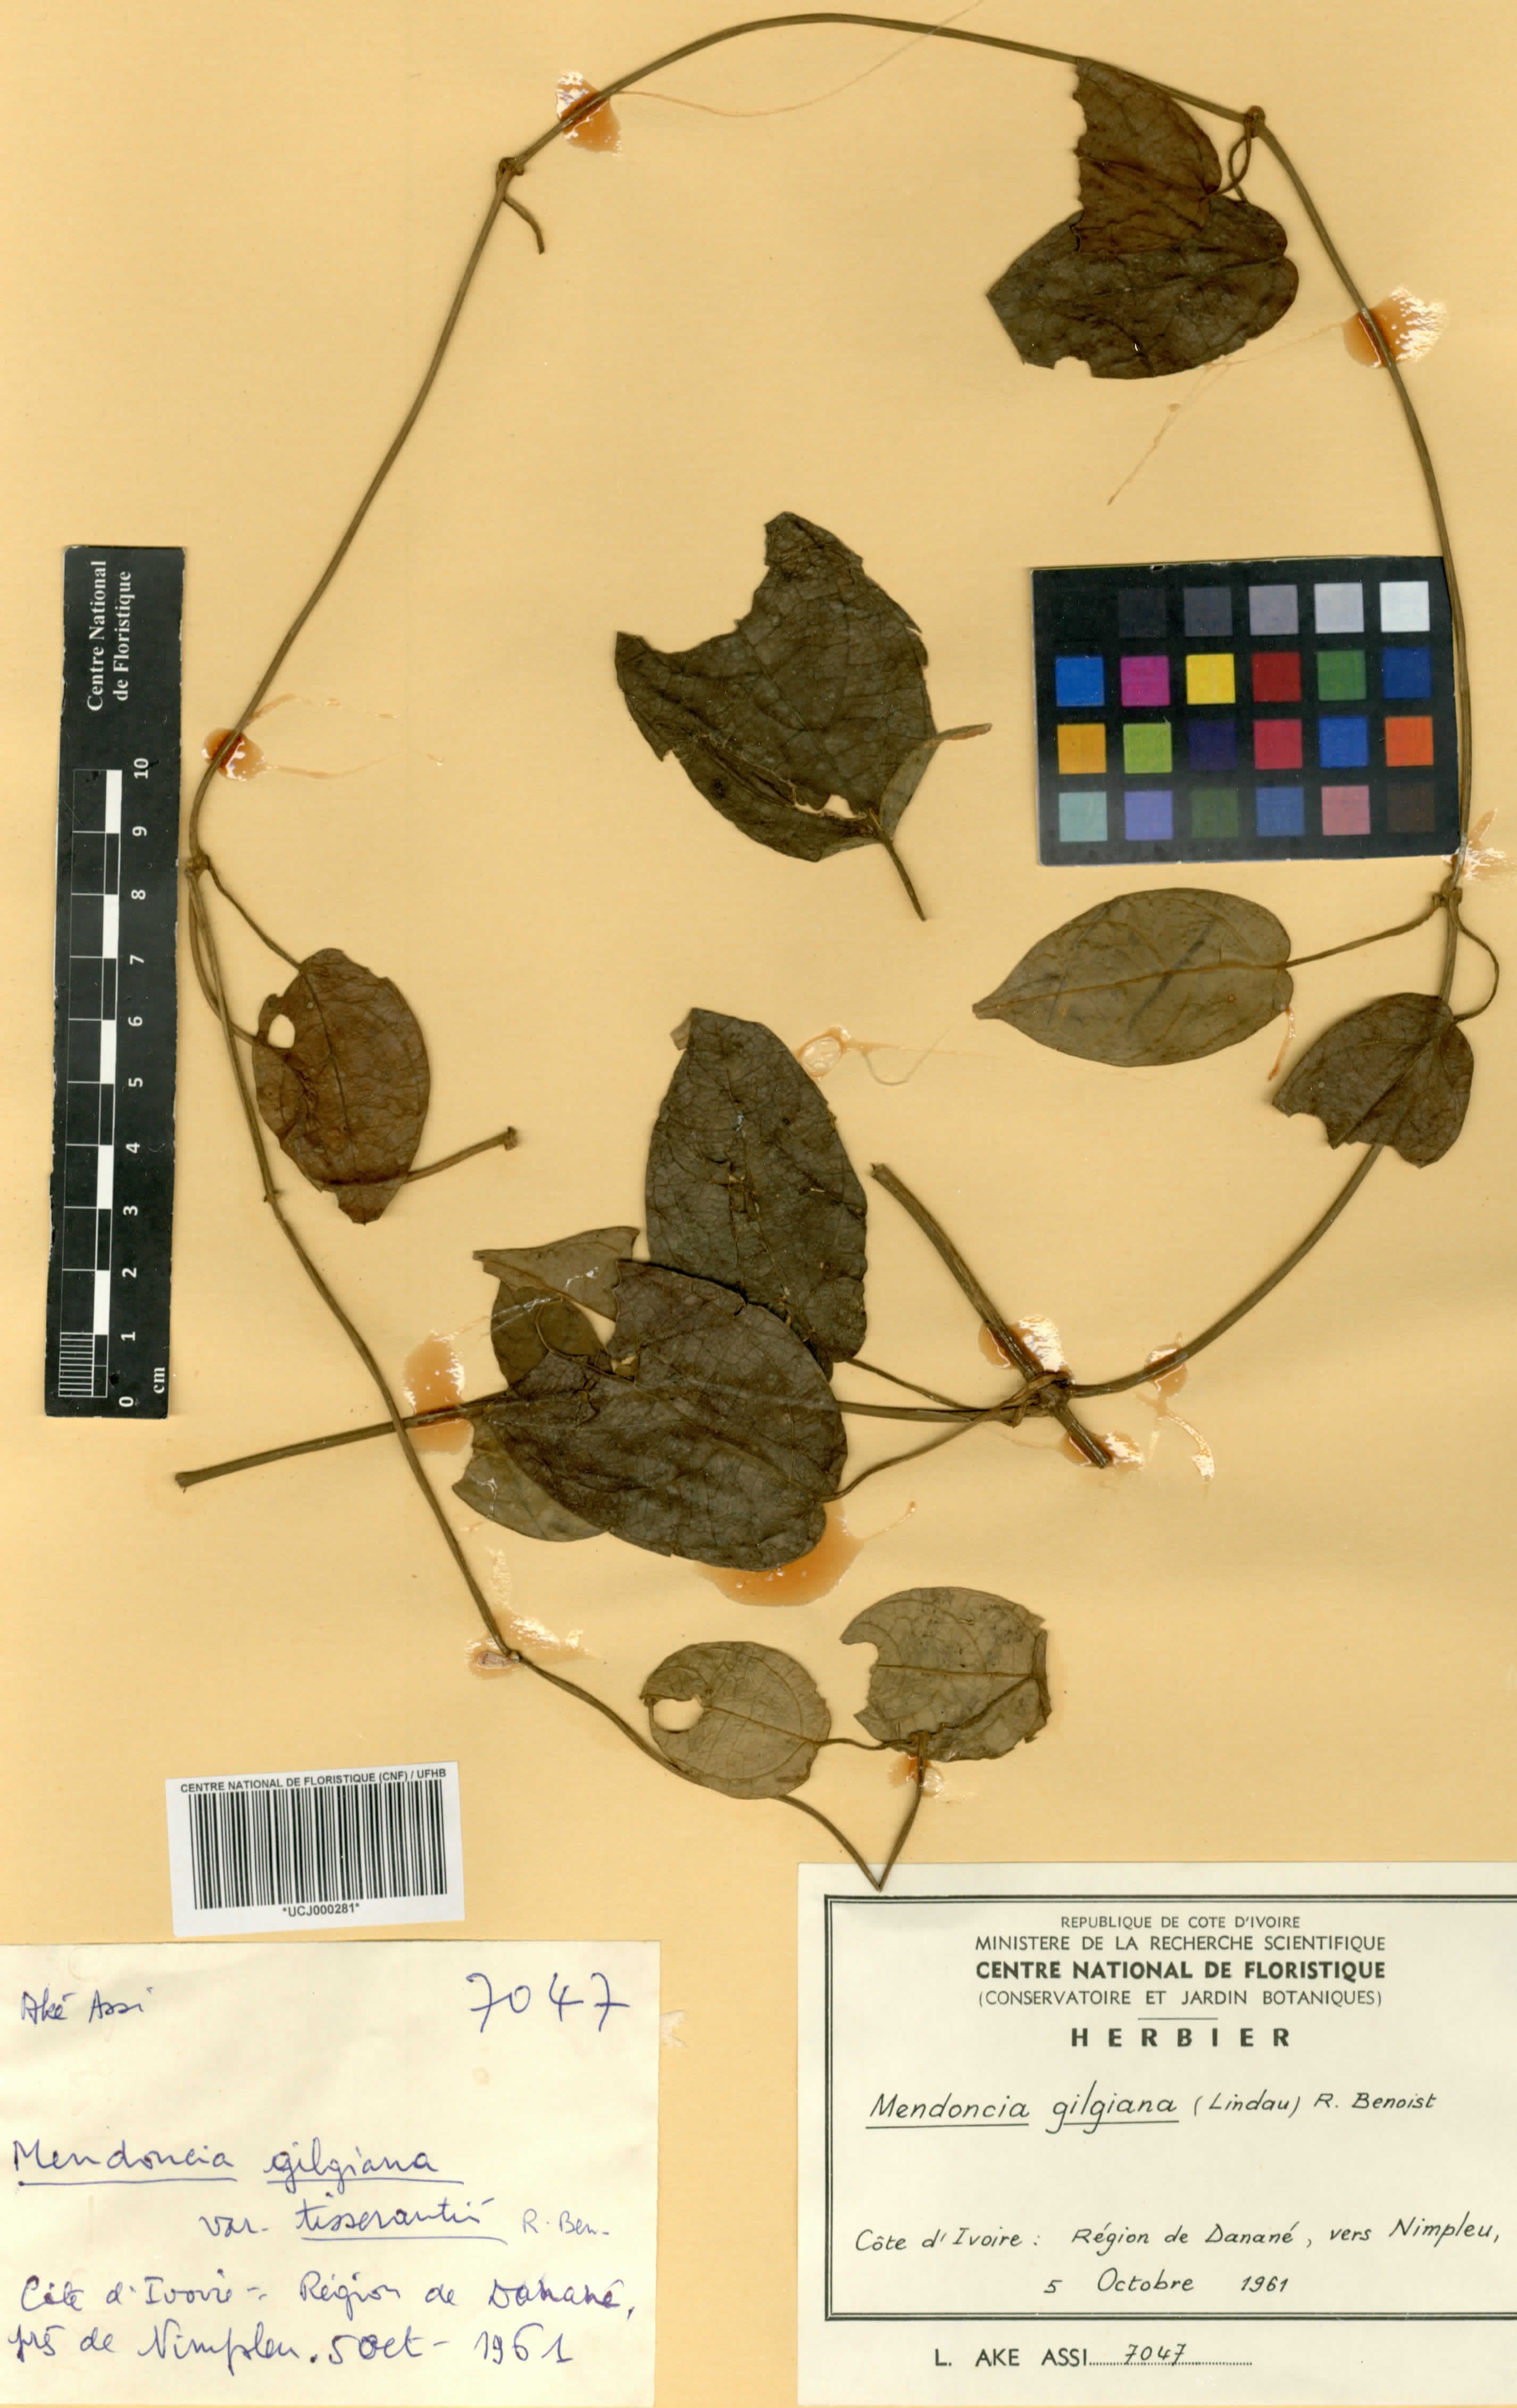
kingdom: Plantae
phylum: Tracheophyta
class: Magnoliopsida
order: Lamiales
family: Acanthaceae
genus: Mendoncia
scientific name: Mendoncia gilgiana
